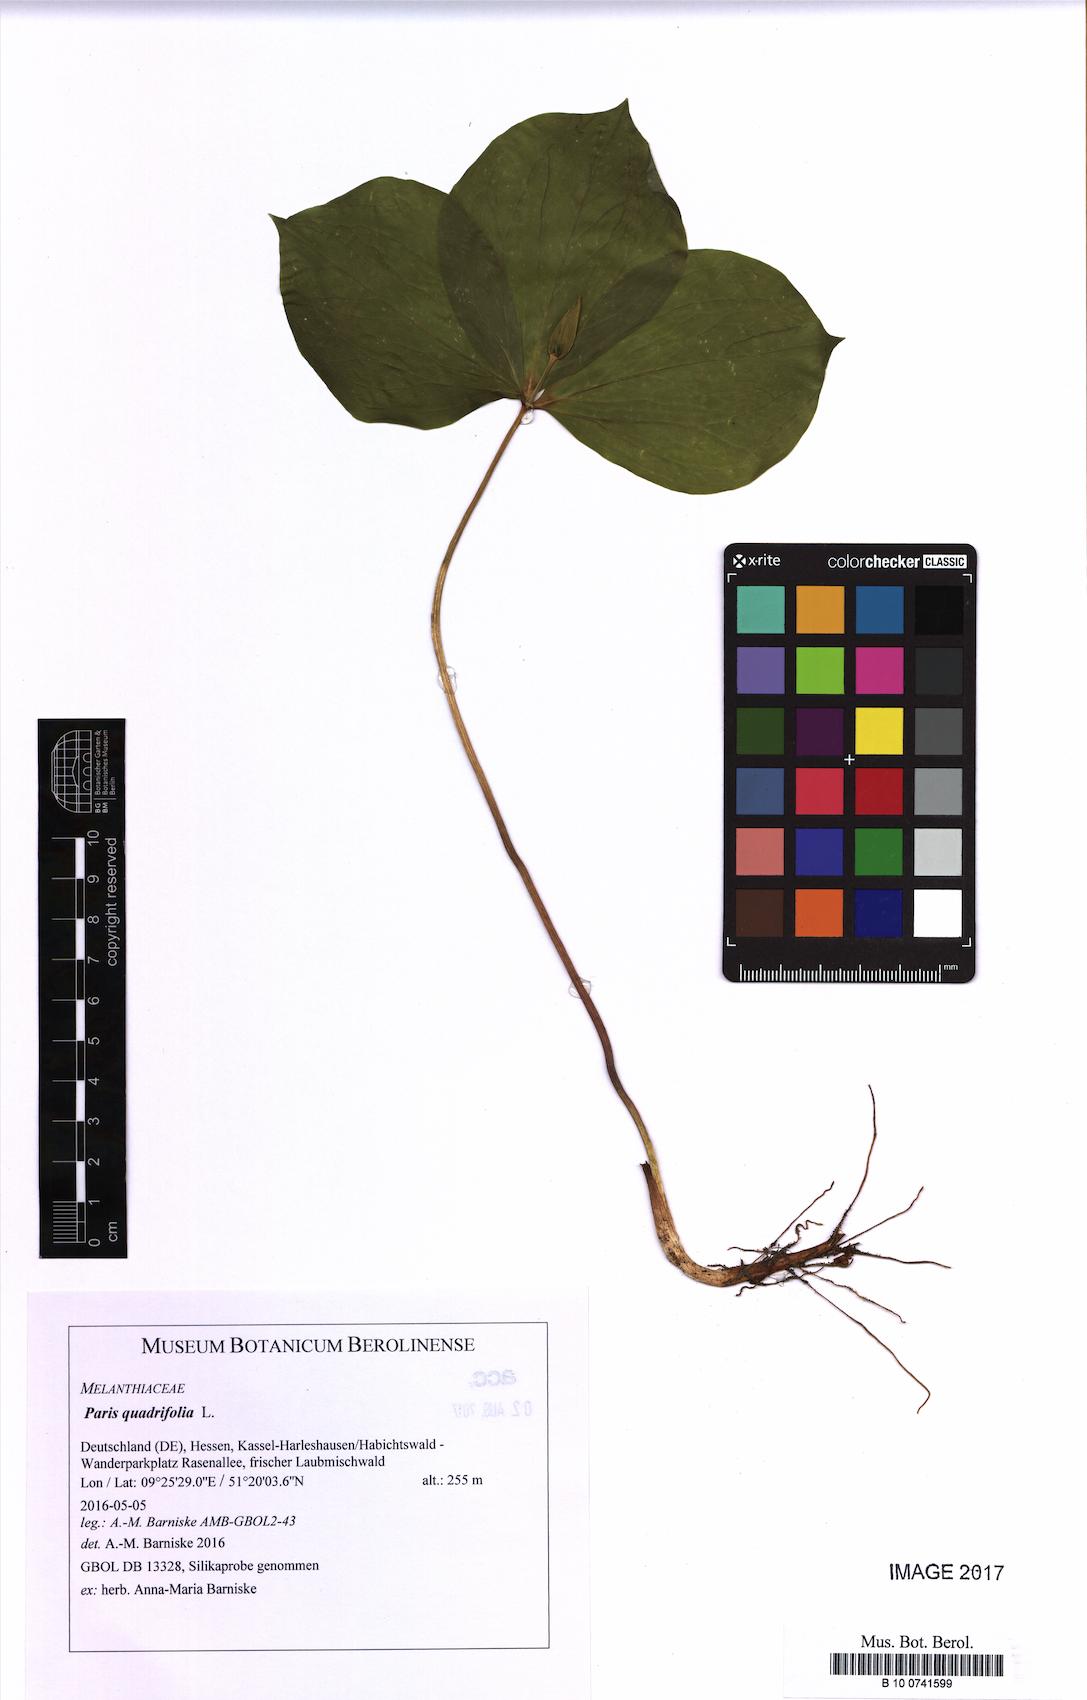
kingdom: Plantae
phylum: Tracheophyta
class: Liliopsida
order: Liliales
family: Melanthiaceae
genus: Paris
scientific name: Paris quadrifolia
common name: Herb-paris
